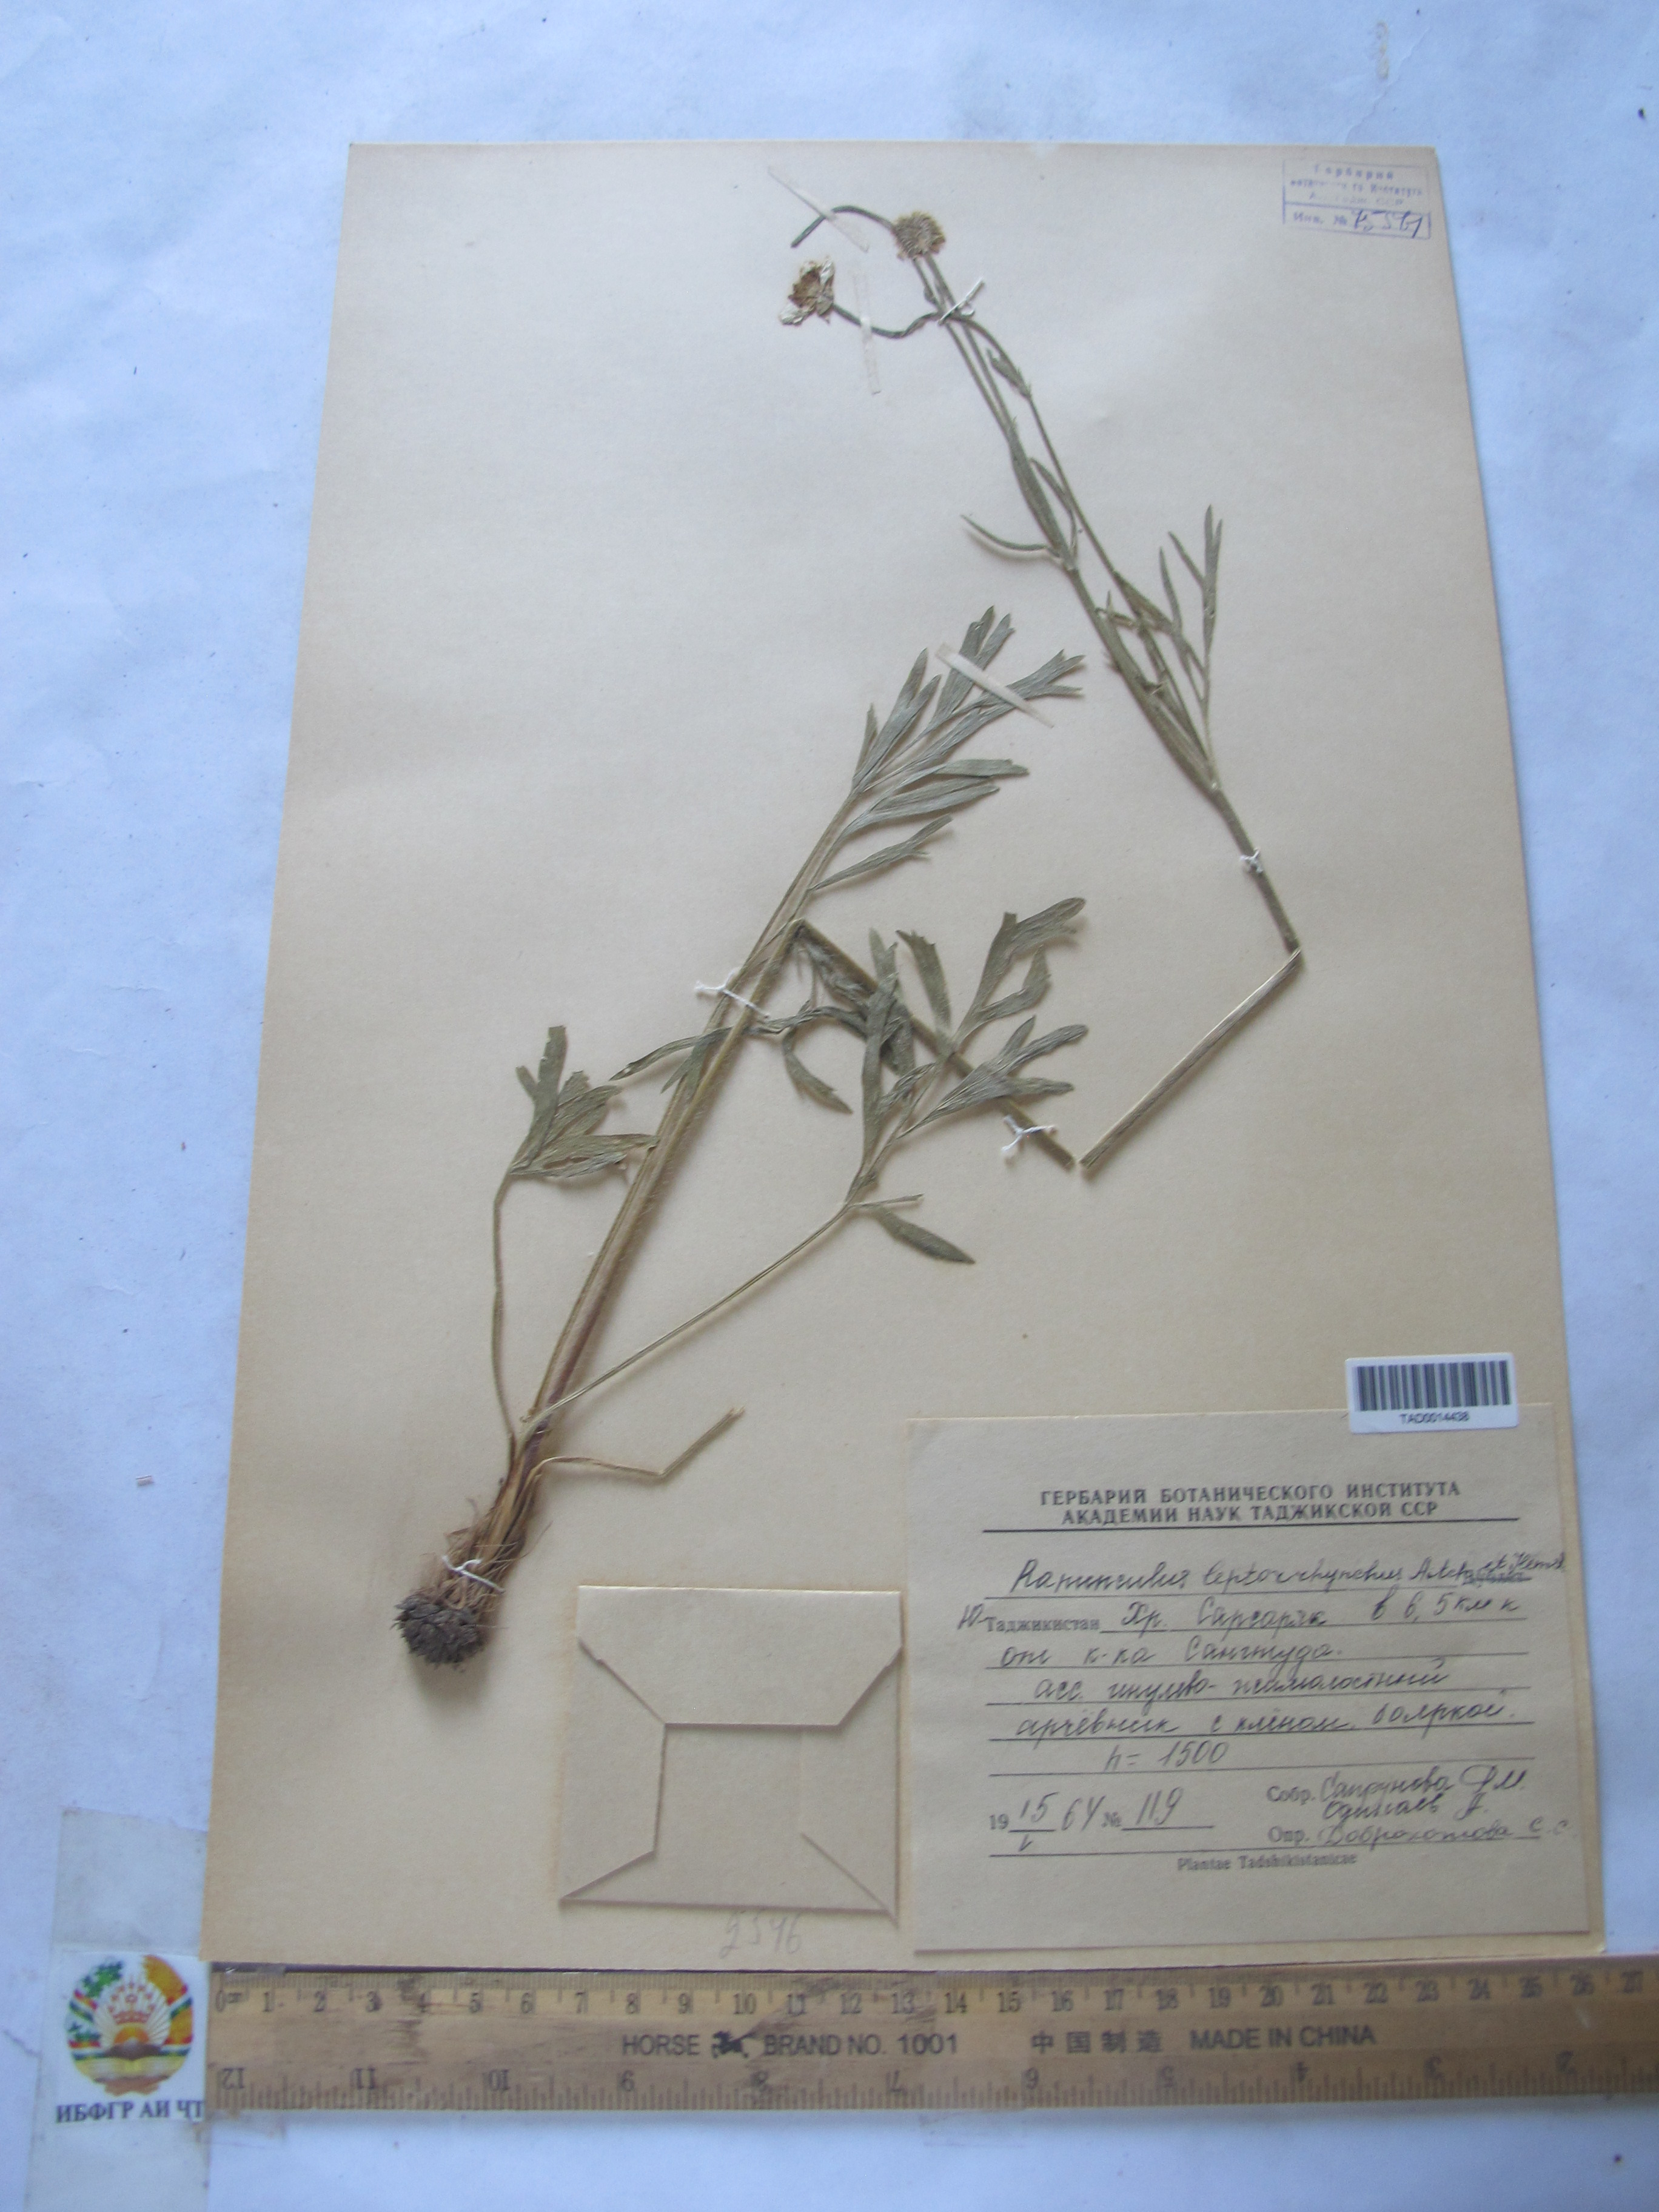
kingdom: Plantae
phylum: Tracheophyta
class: Magnoliopsida
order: Ranunculales
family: Ranunculaceae
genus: Ranunculus
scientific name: Ranunculus leptorrhynchus
